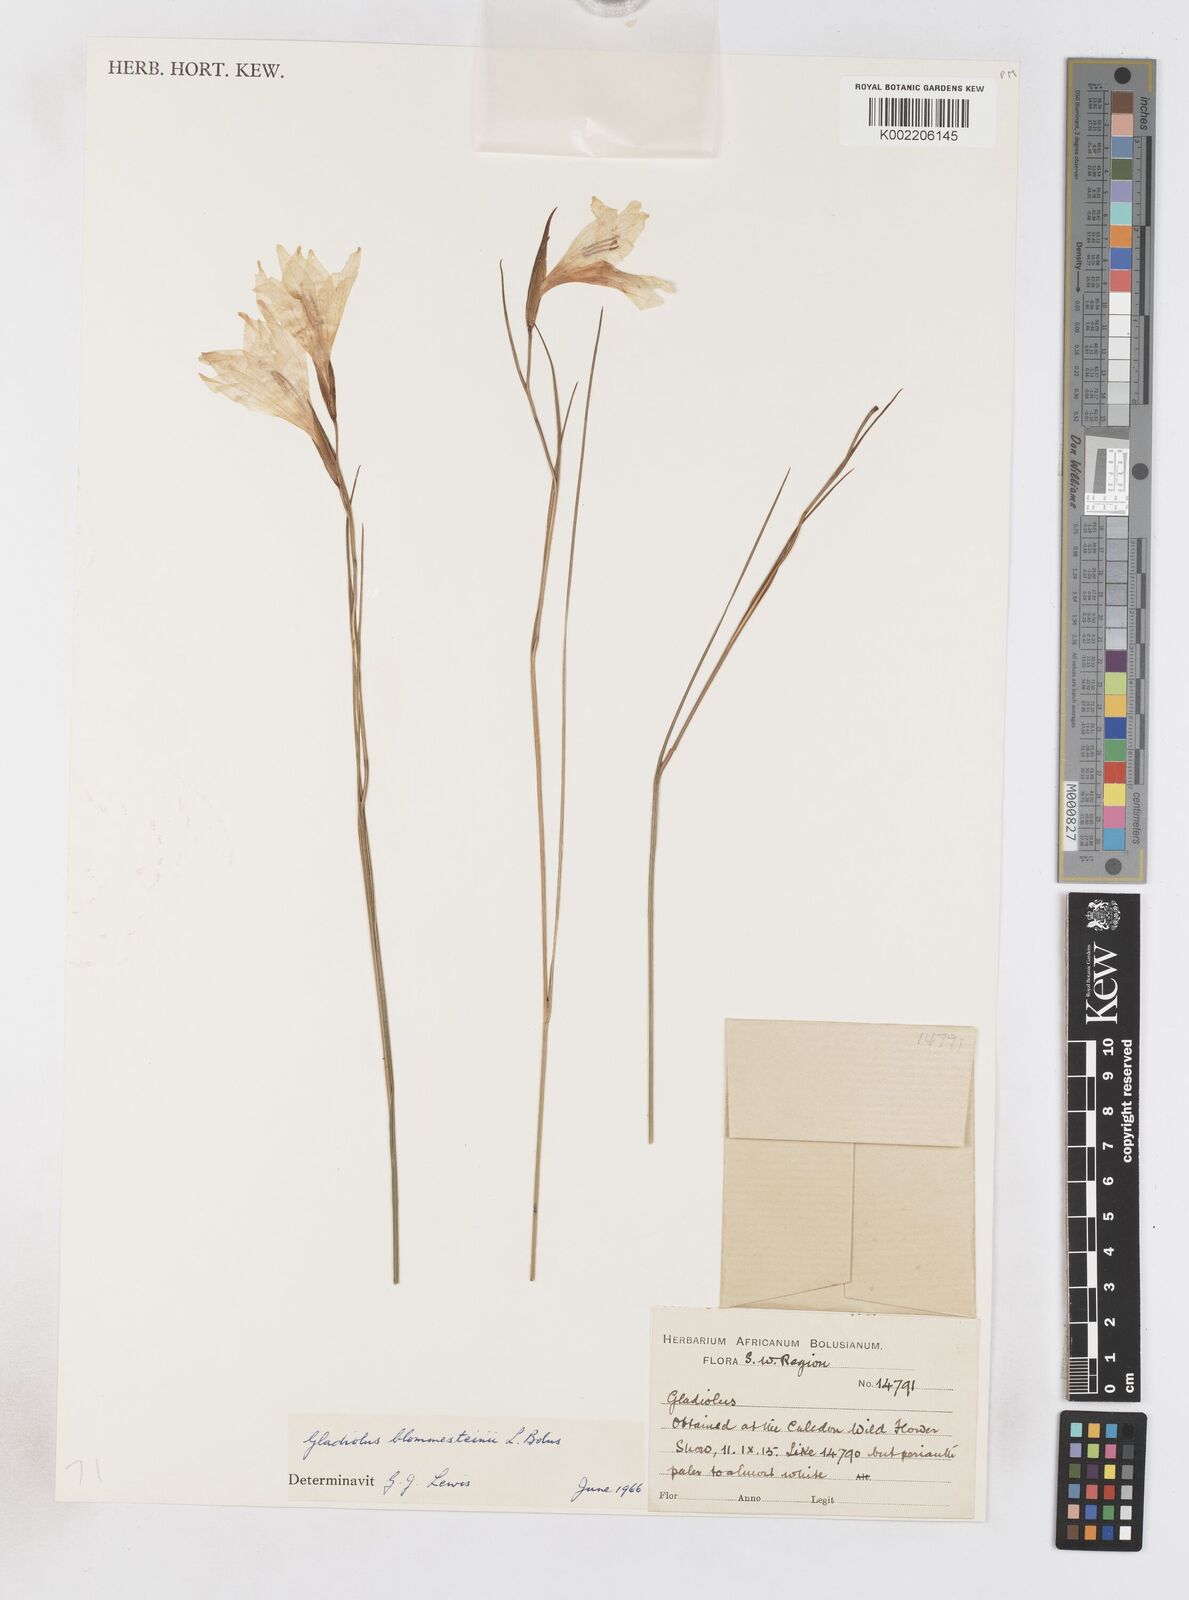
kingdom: Plantae
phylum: Tracheophyta
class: Liliopsida
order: Asparagales
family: Iridaceae
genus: Gladiolus
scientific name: Gladiolus virgatus
